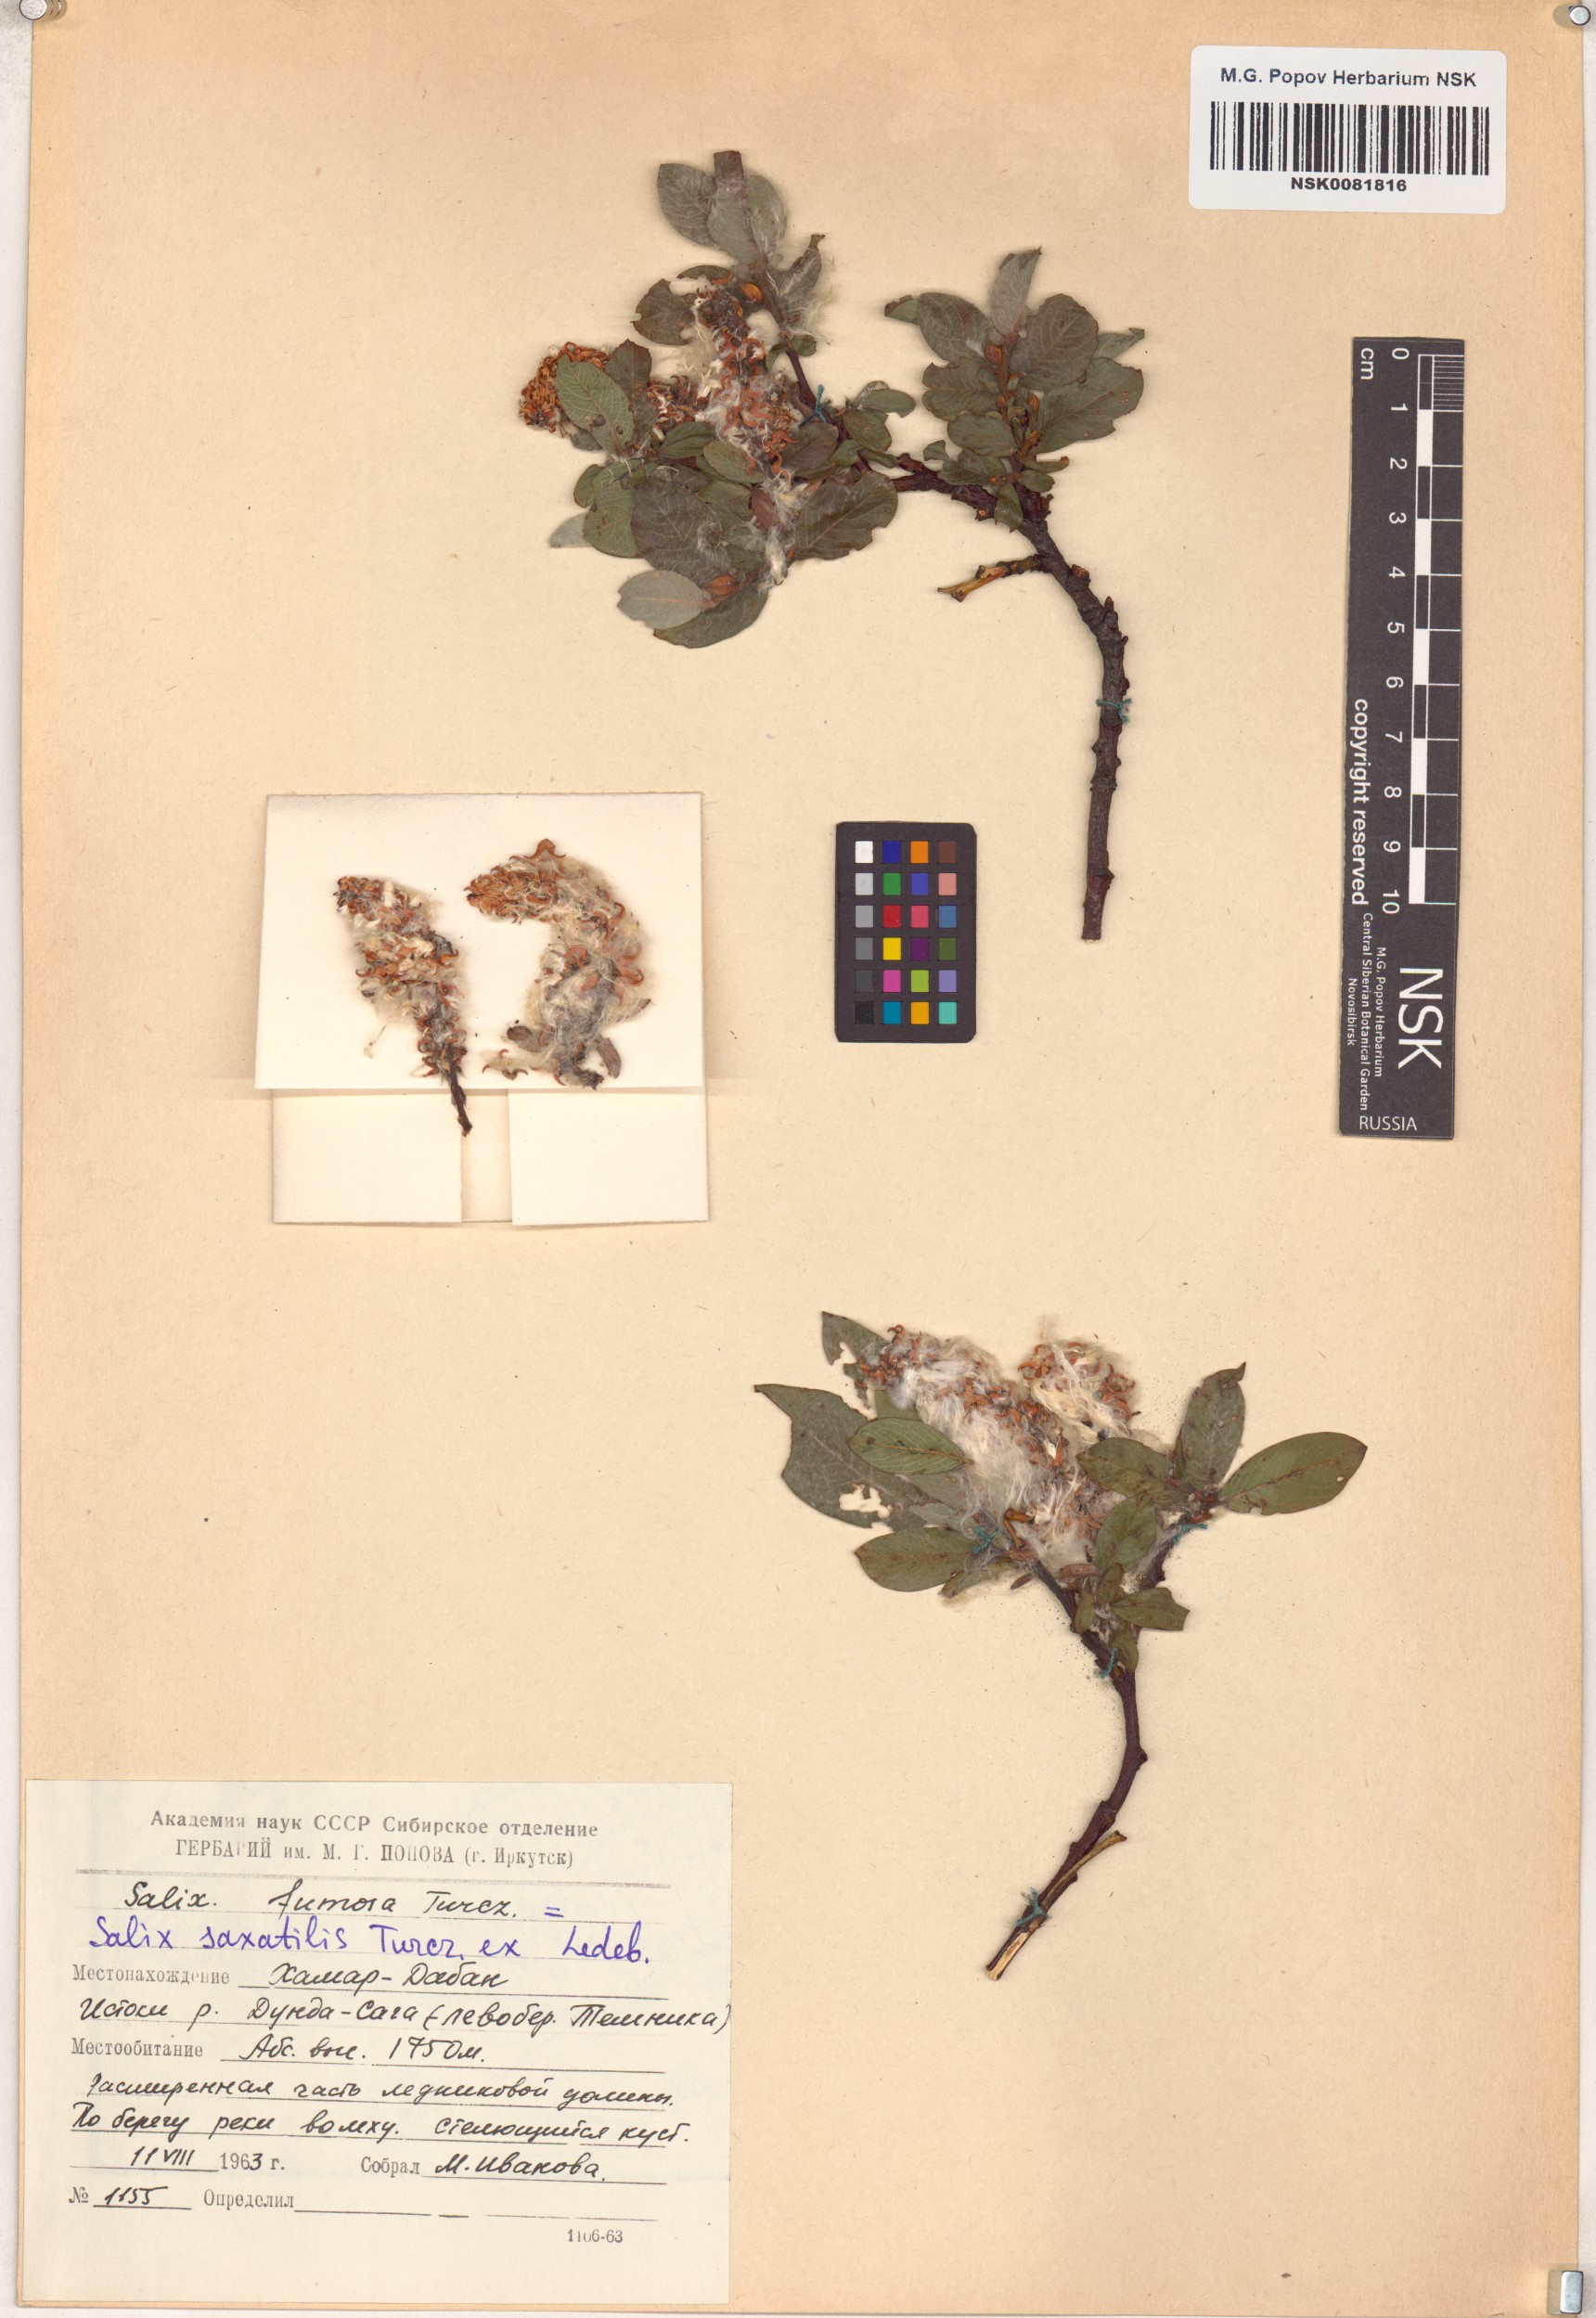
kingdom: Plantae
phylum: Tracheophyta
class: Magnoliopsida
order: Malpighiales
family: Salicaceae
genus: Salix
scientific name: Salix saxatilis
